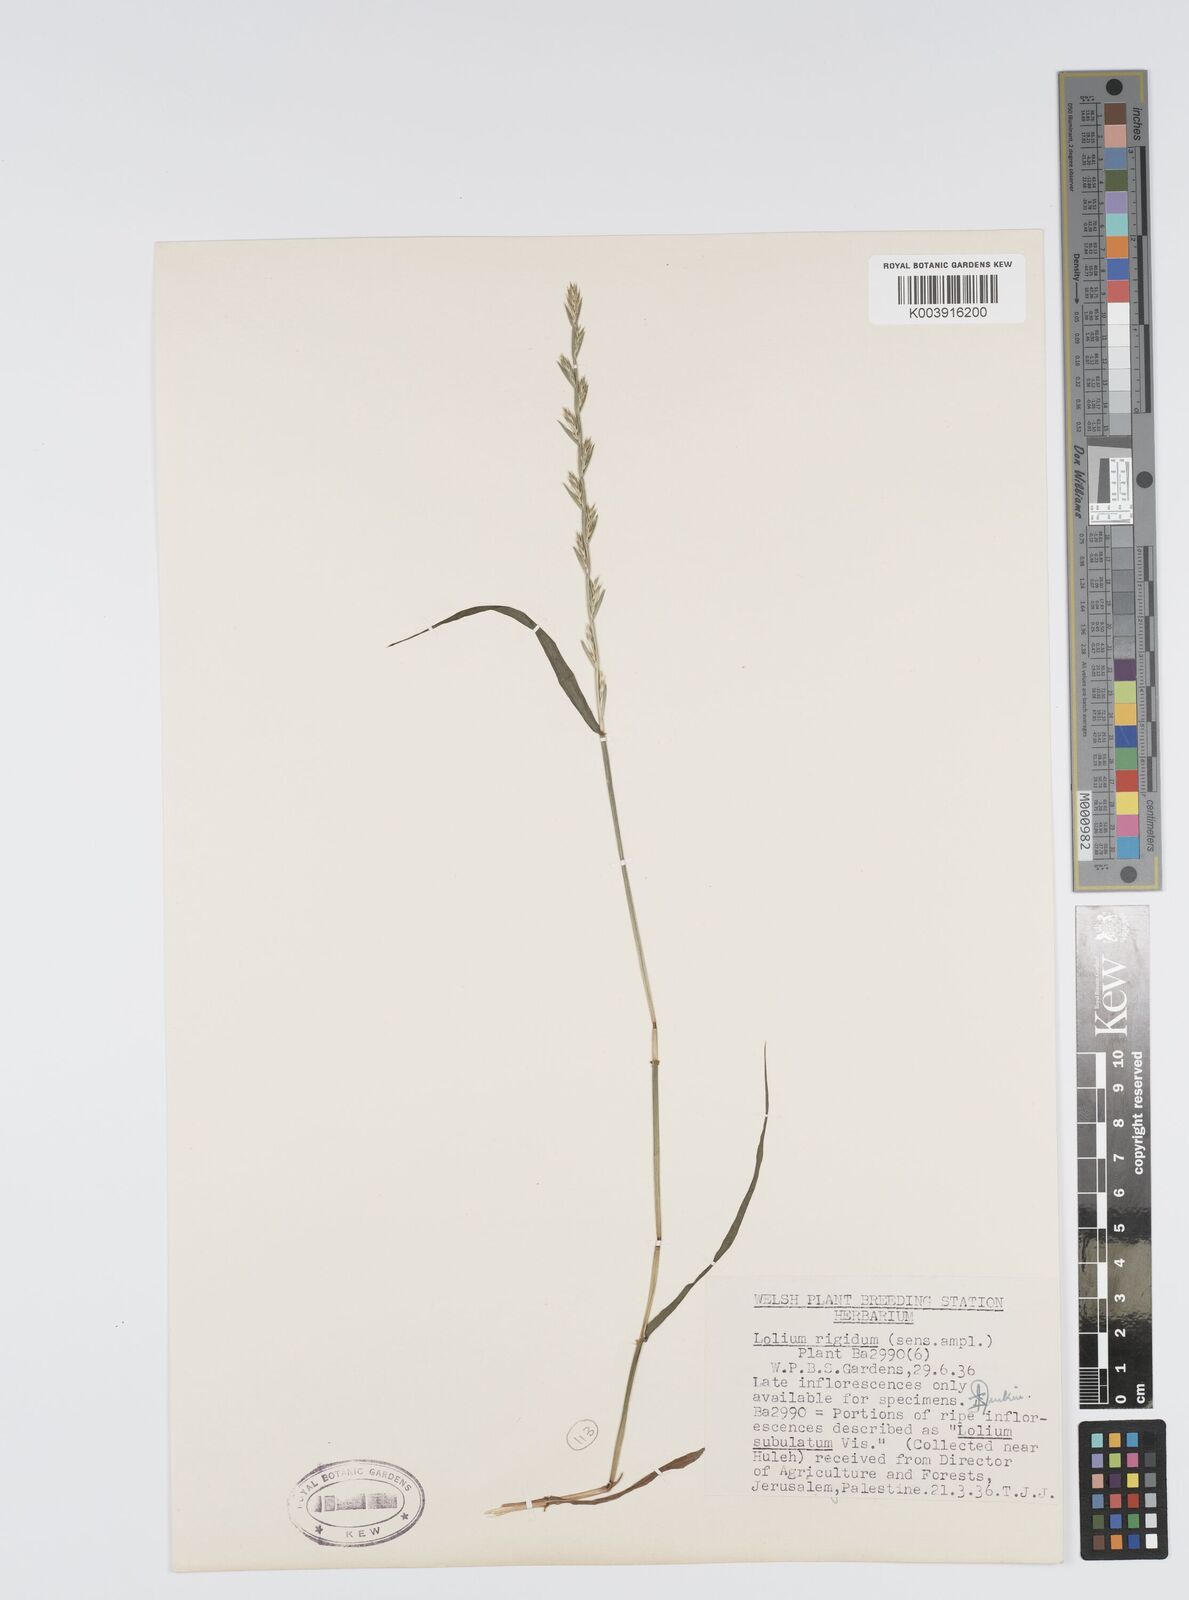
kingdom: Plantae
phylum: Tracheophyta
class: Liliopsida
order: Poales
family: Poaceae
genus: Lolium
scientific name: Lolium rigidum
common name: Wimmera ryegrass
